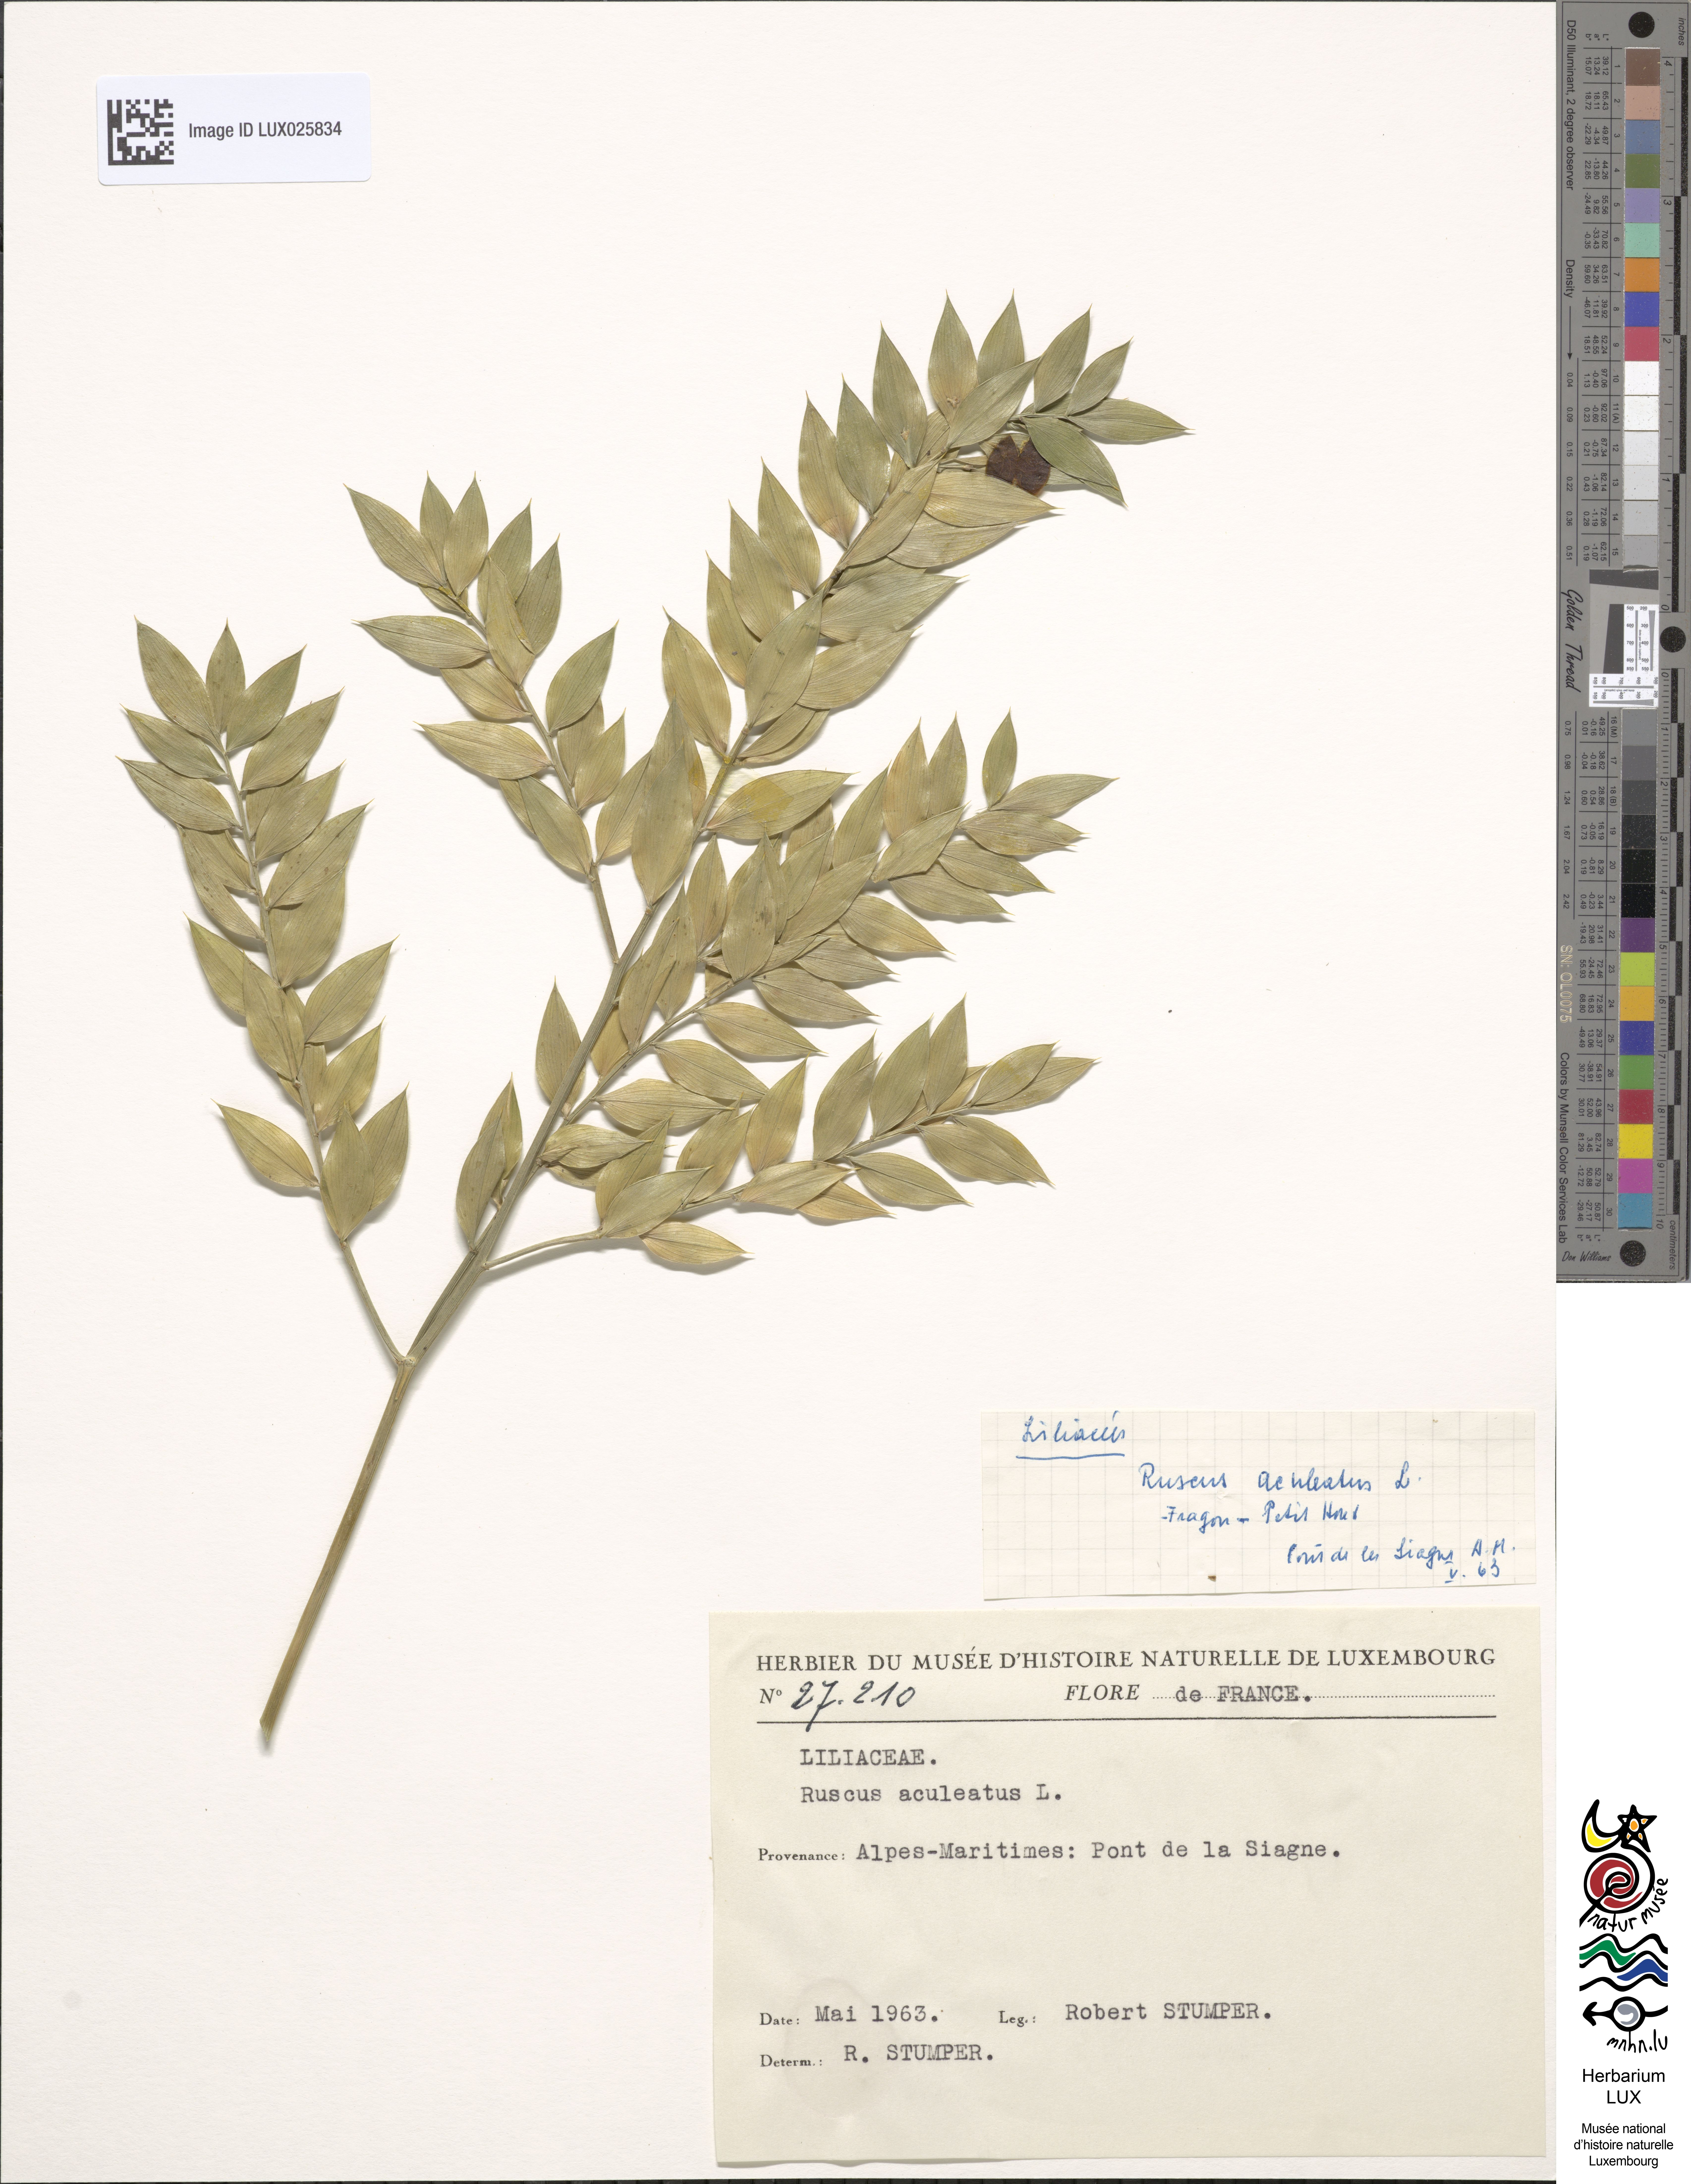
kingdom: Plantae
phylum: Tracheophyta
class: Liliopsida
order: Asparagales
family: Asparagaceae
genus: Ruscus
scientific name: Ruscus aculeatus
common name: Butcher's-broom
